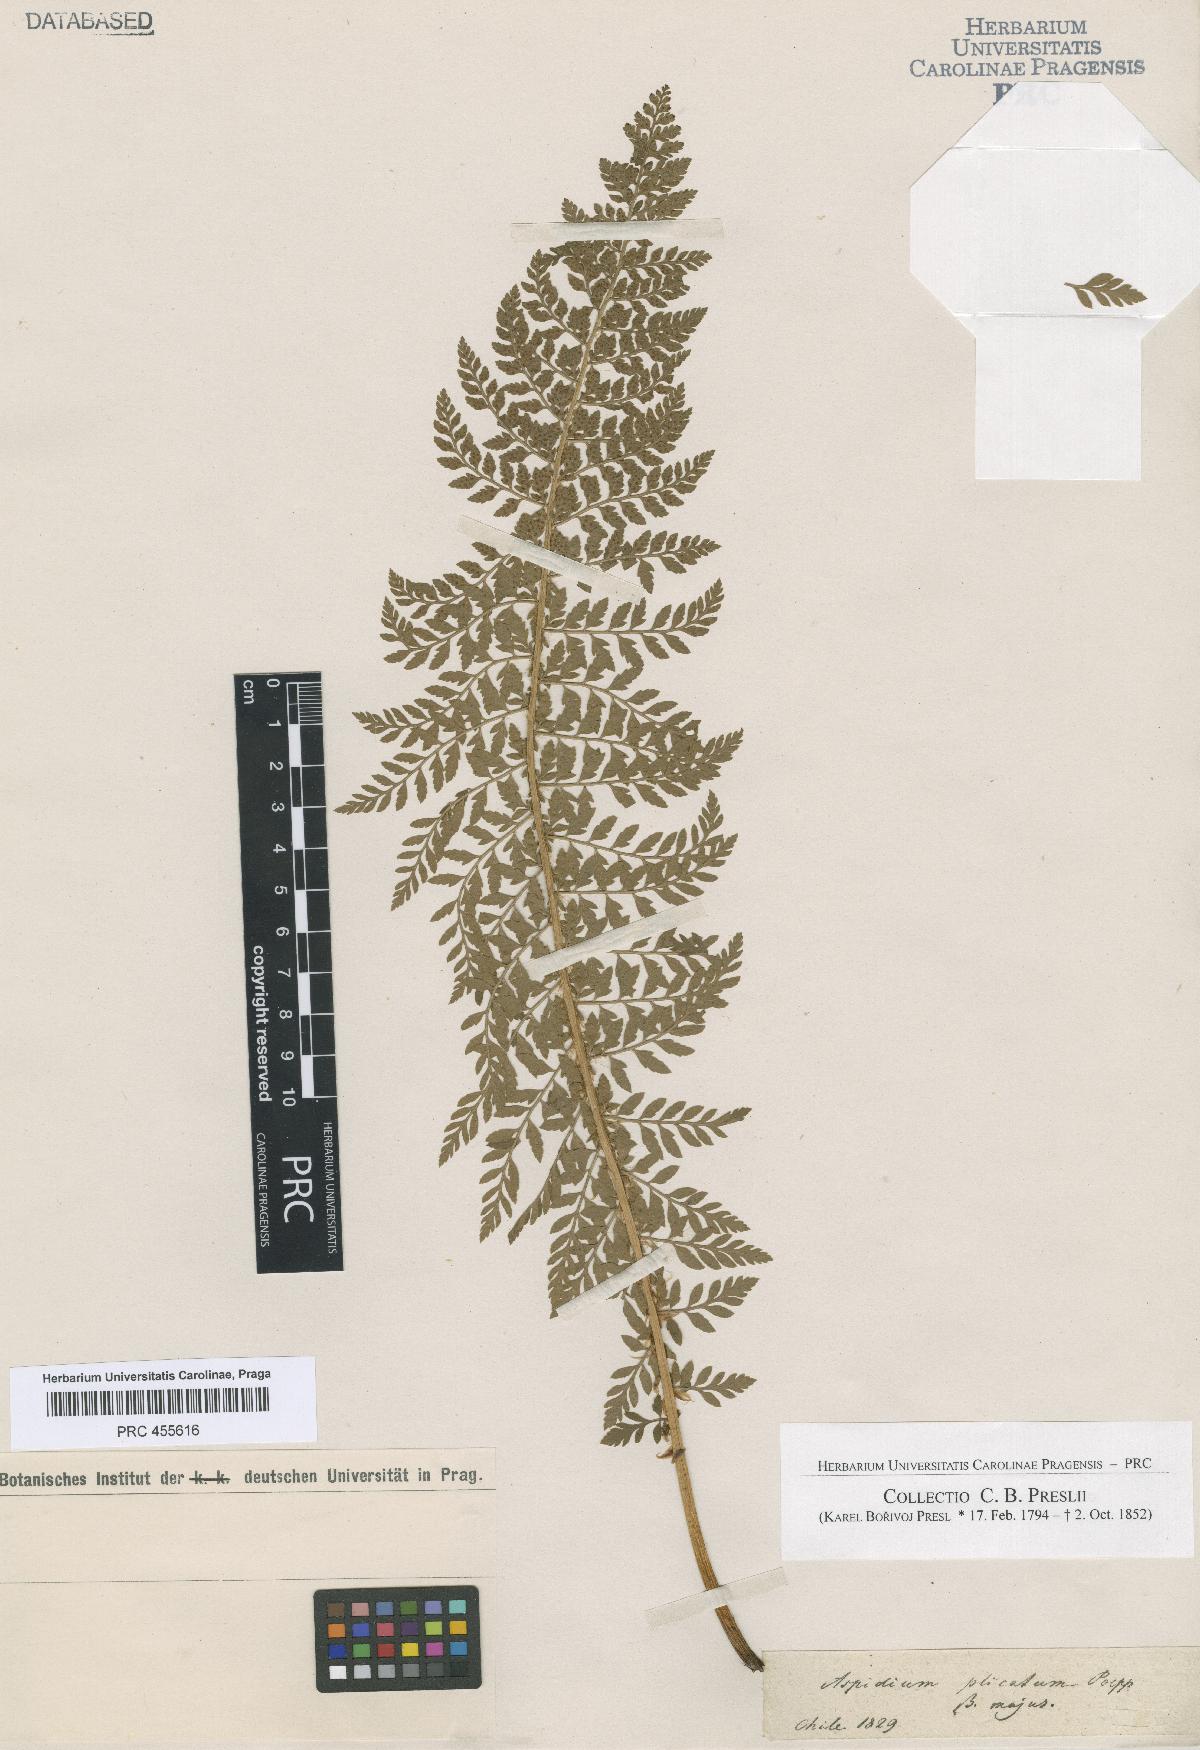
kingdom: Plantae
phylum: Tracheophyta
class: Polypodiopsida
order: Polypodiales
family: Dryopteridaceae
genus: Polystichum
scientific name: Polystichum plicatum
